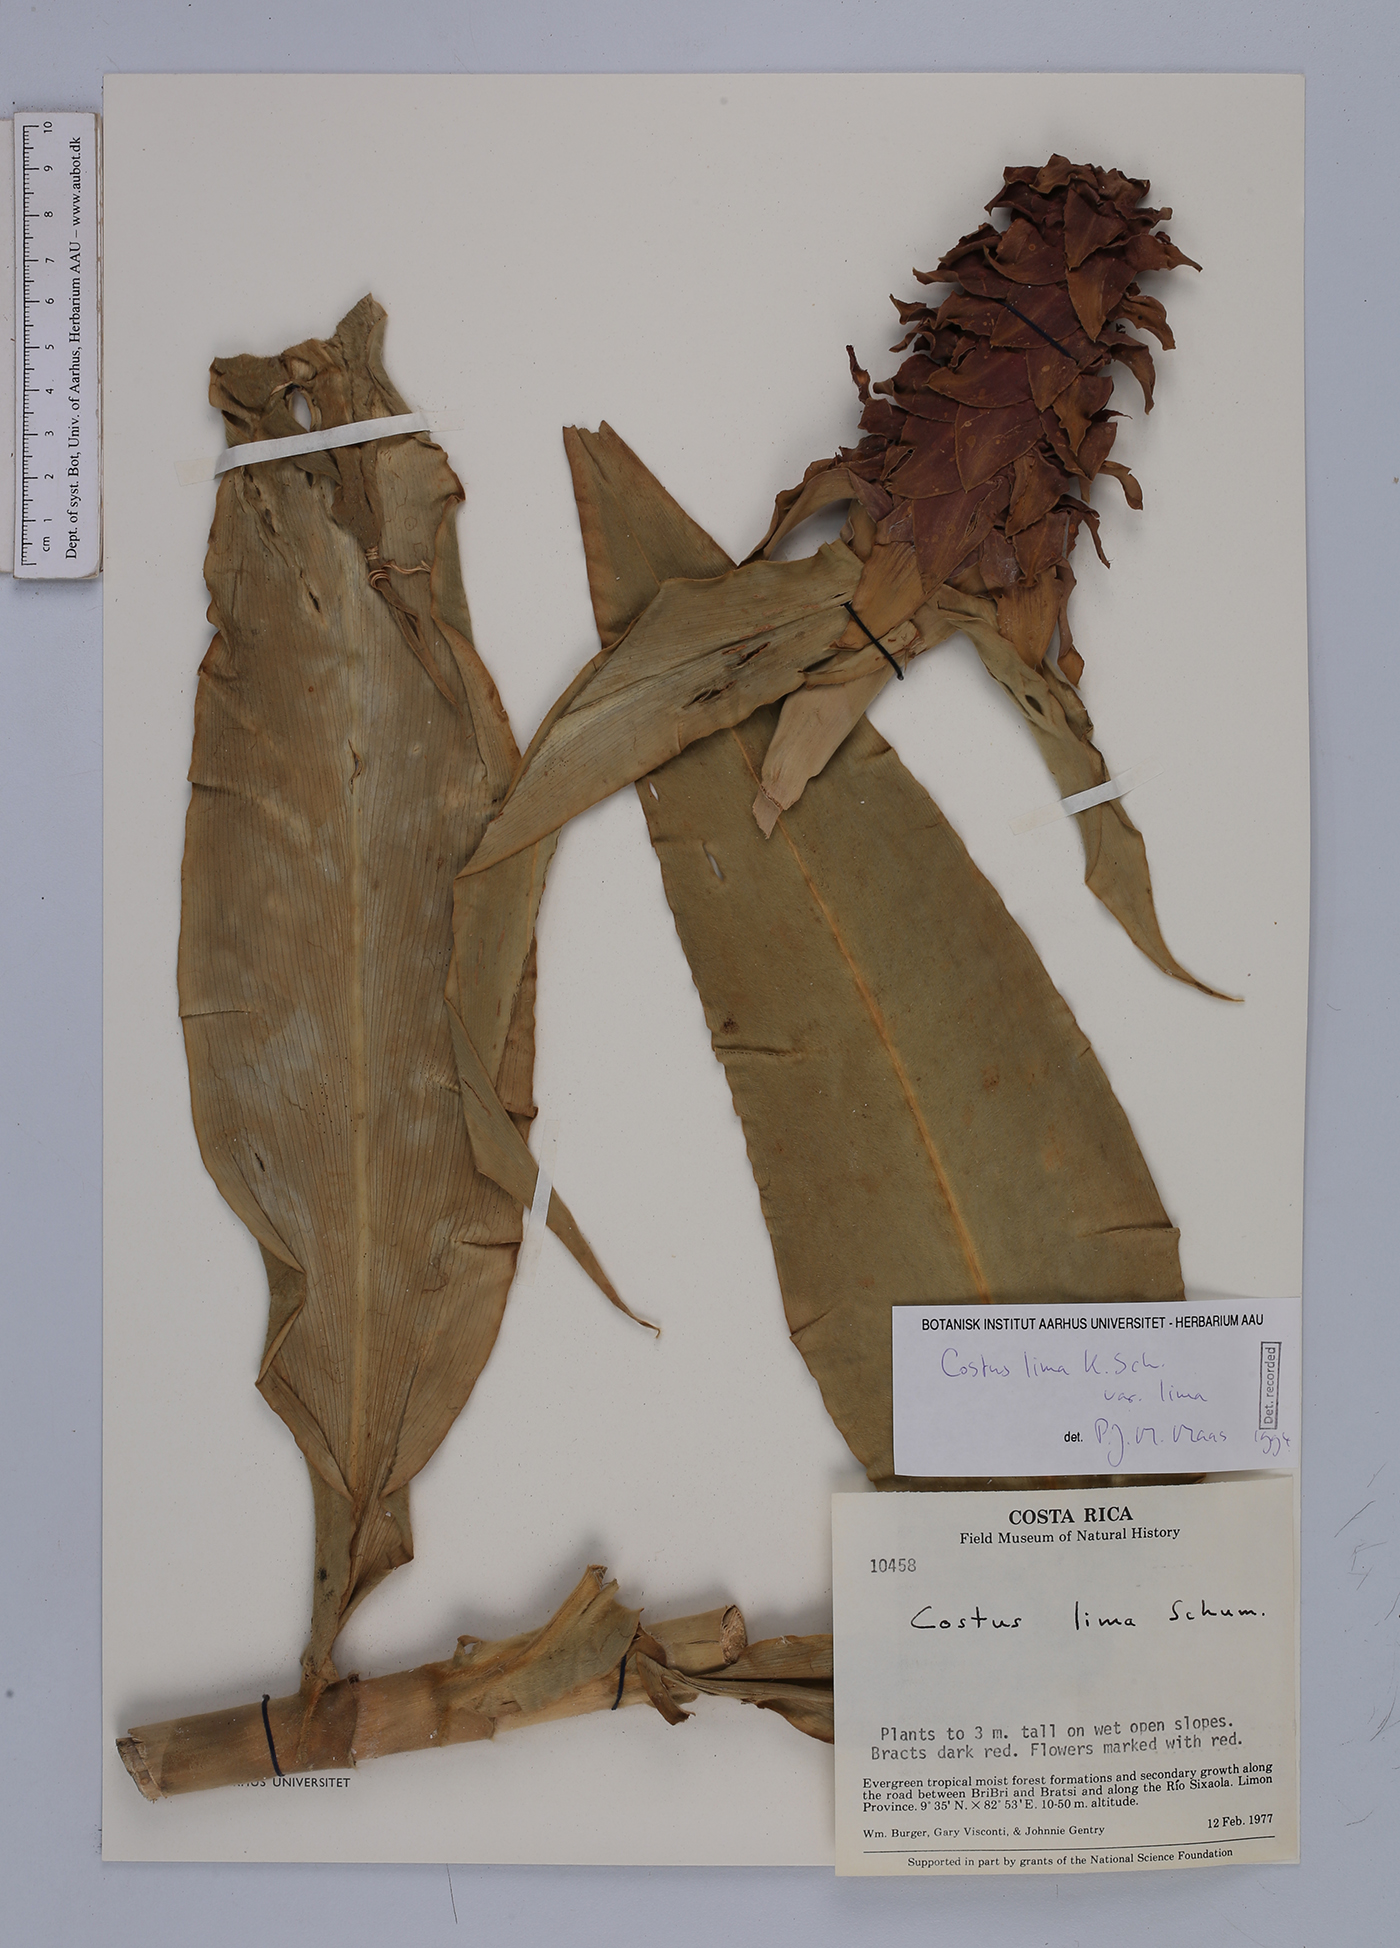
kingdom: Plantae
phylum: Tracheophyta
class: Liliopsida
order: Zingiberales
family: Costaceae
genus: Costus
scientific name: Costus lima
